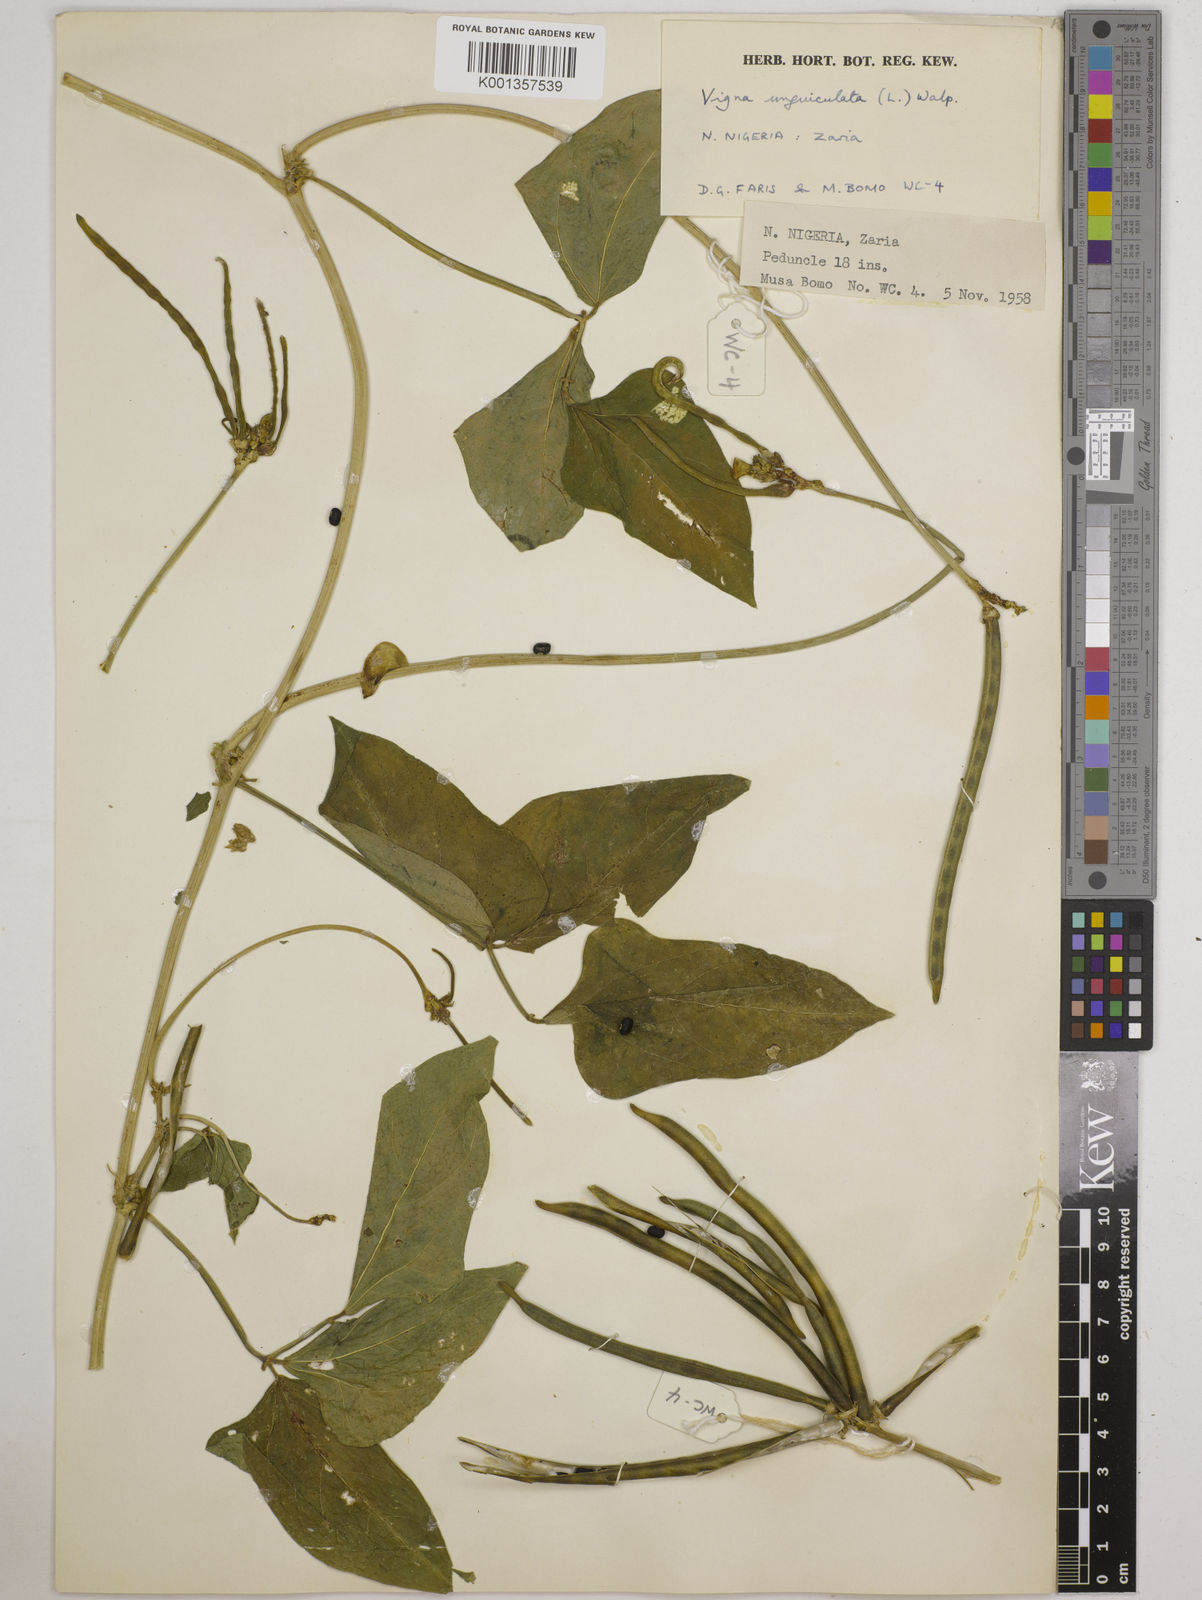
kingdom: Plantae
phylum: Tracheophyta
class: Magnoliopsida
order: Fabales
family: Fabaceae
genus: Vigna
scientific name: Vigna
